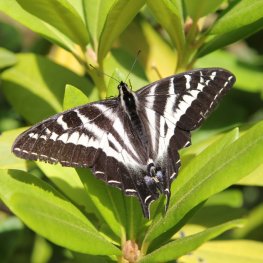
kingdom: Animalia
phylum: Arthropoda
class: Insecta
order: Lepidoptera
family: Papilionidae
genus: Pterourus
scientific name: Pterourus eurymedon
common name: Pale Swallowtail
